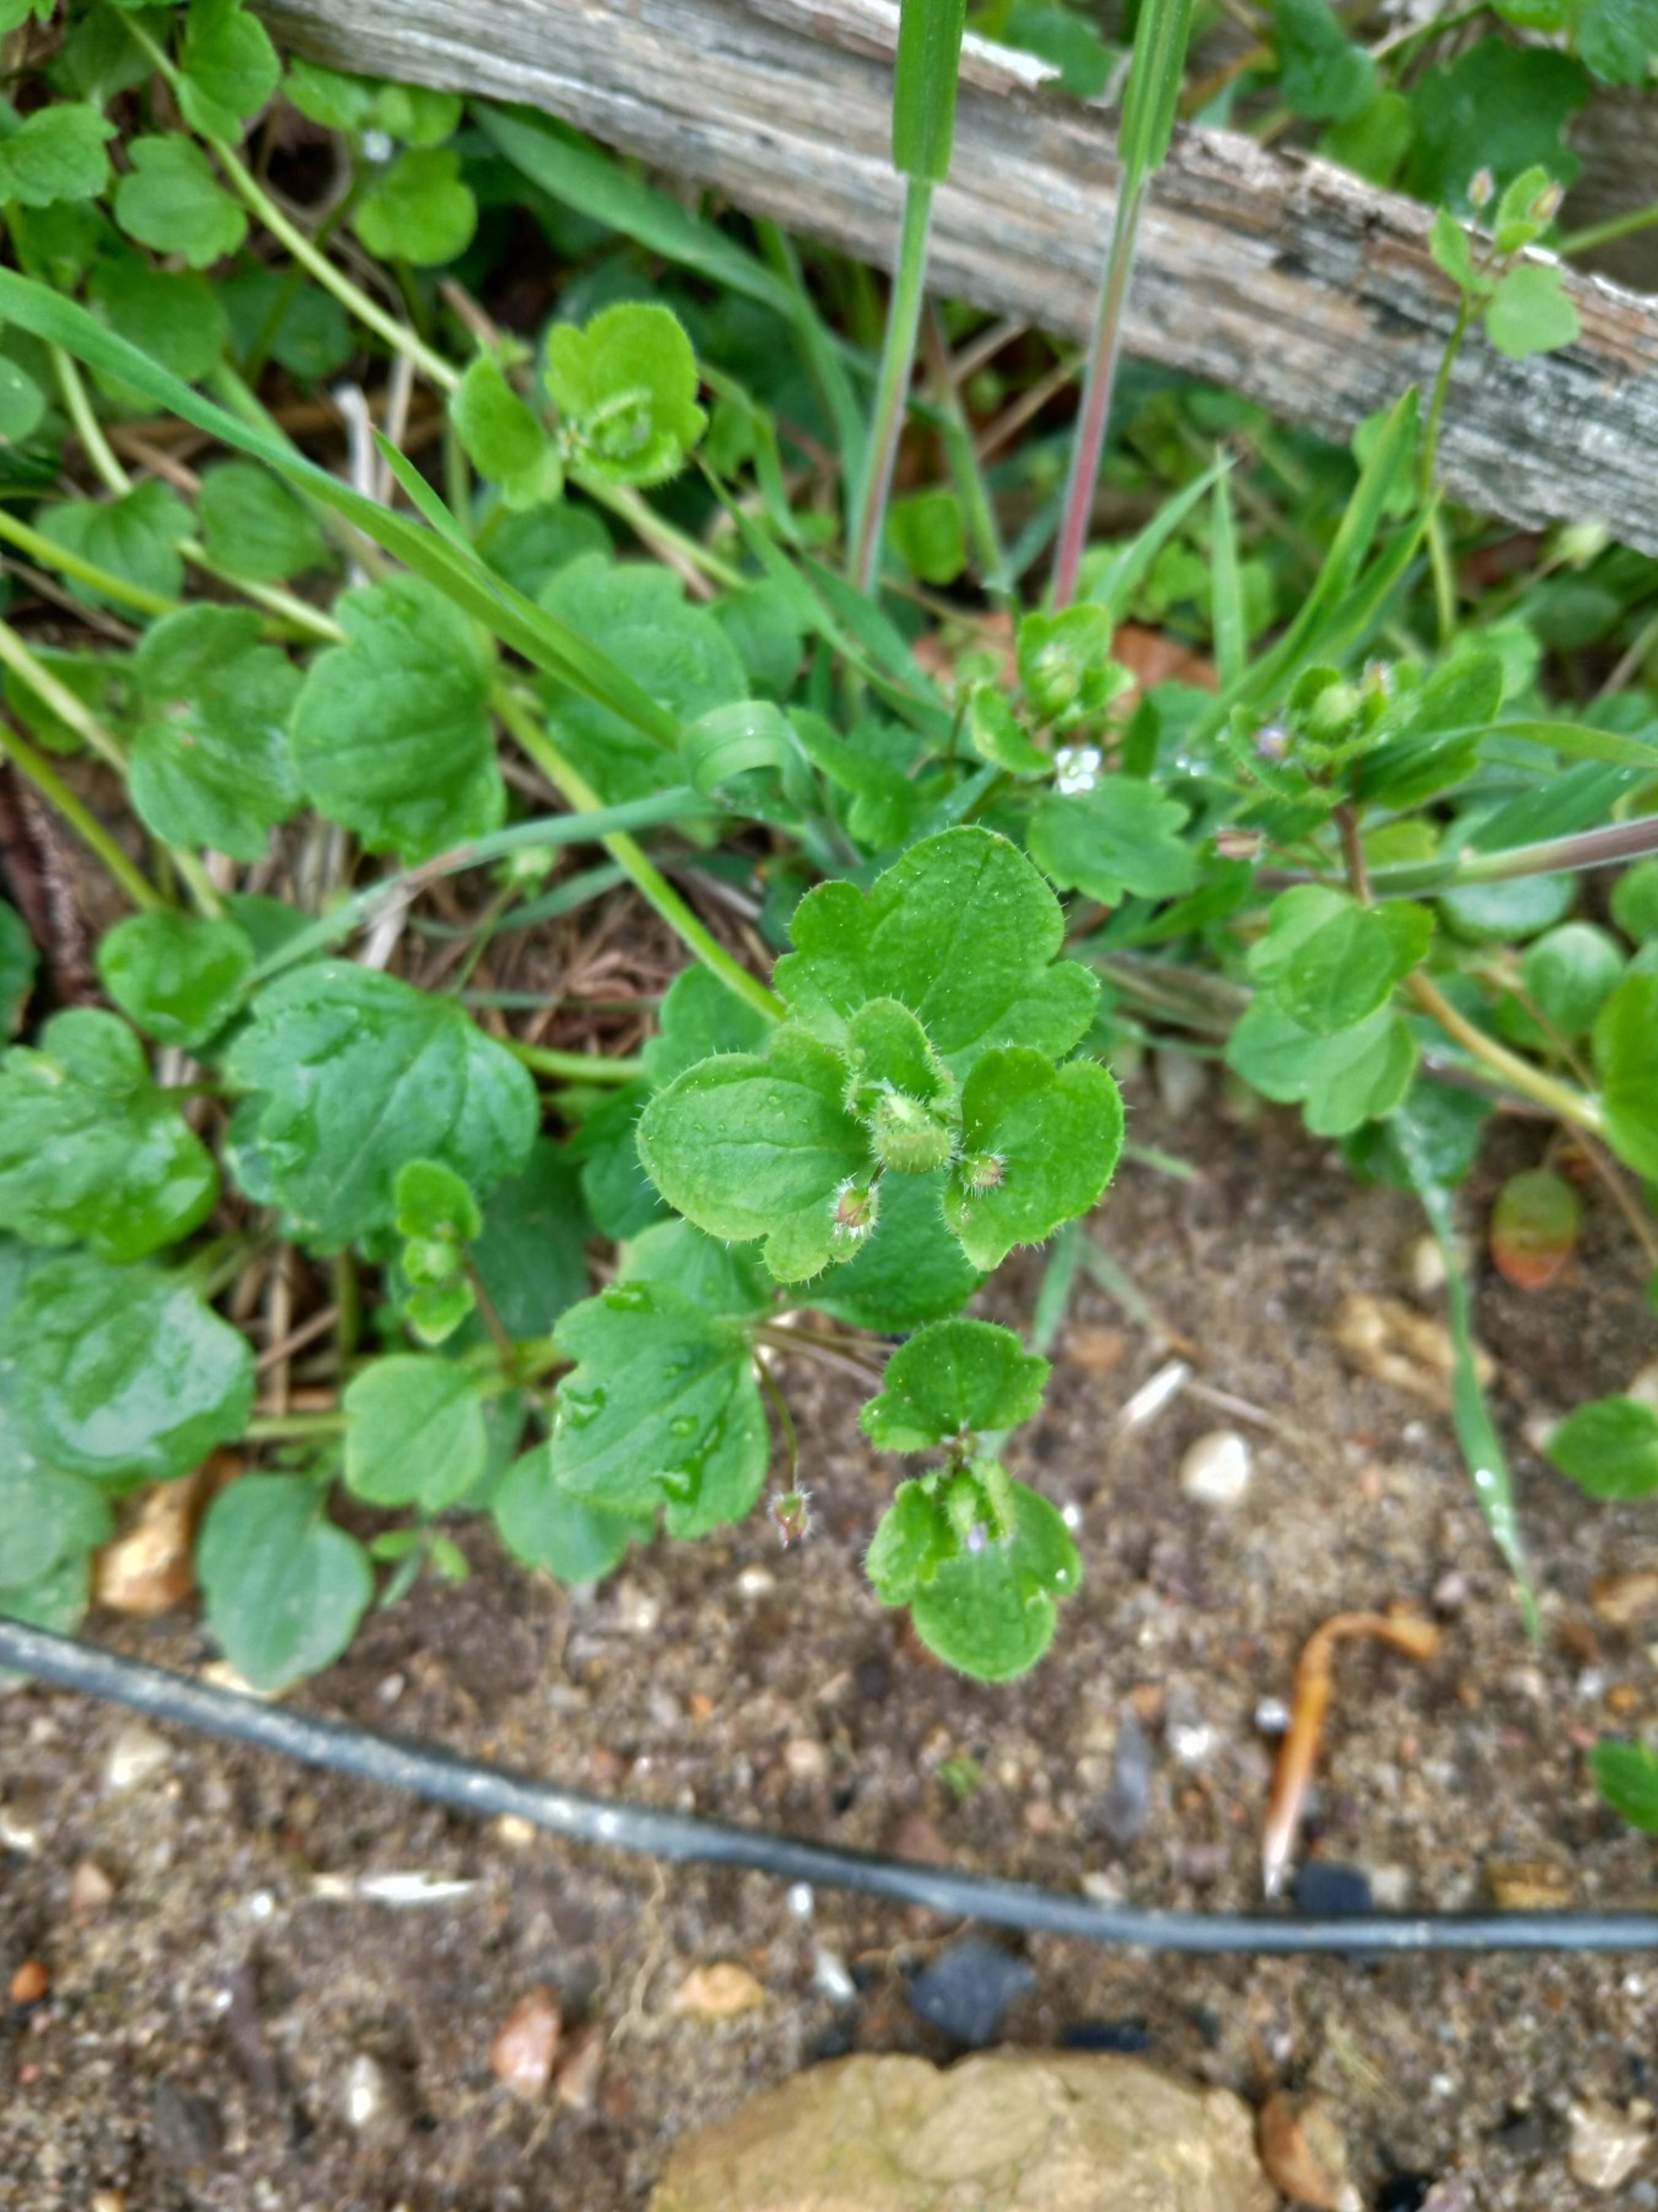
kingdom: Plantae
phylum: Tracheophyta
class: Magnoliopsida
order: Lamiales
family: Plantaginaceae
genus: Veronica
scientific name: Veronica hederifolia
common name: Vedbend-ærenpris
